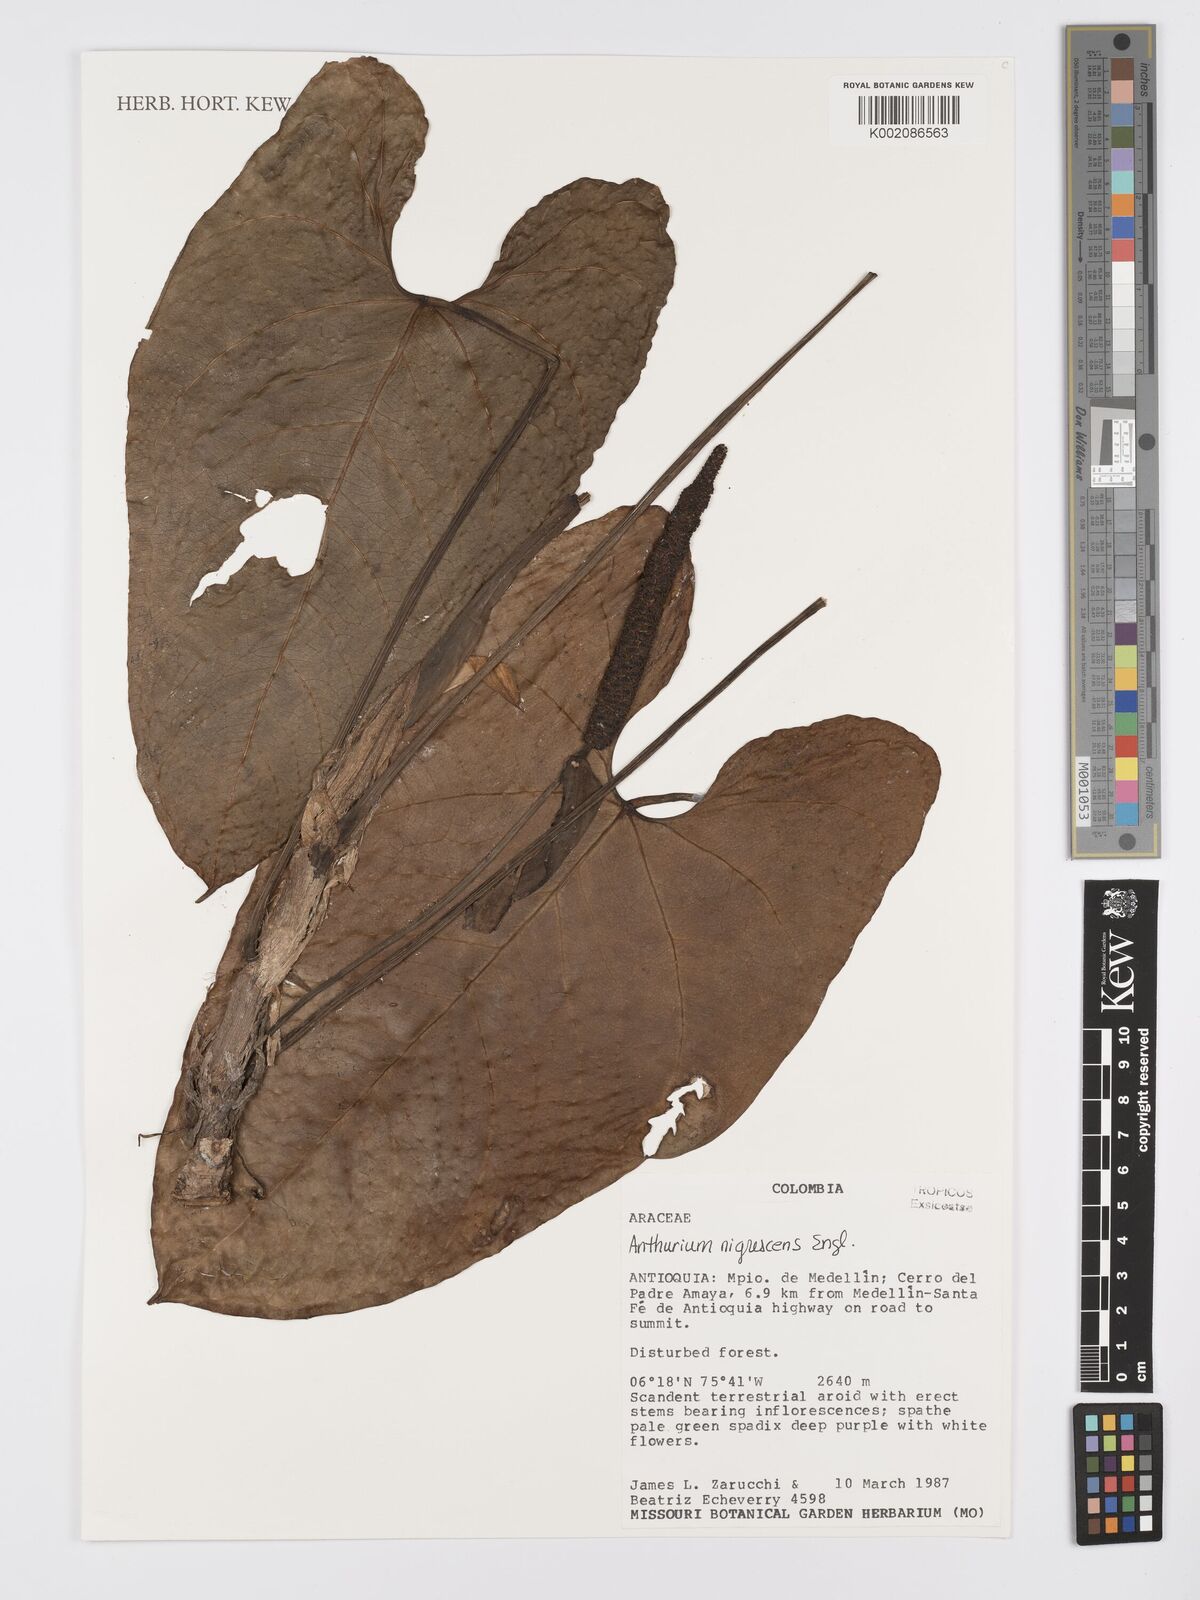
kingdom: Plantae
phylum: Tracheophyta
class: Liliopsida
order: Alismatales
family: Araceae
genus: Anthurium
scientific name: Anthurium nigrescens
